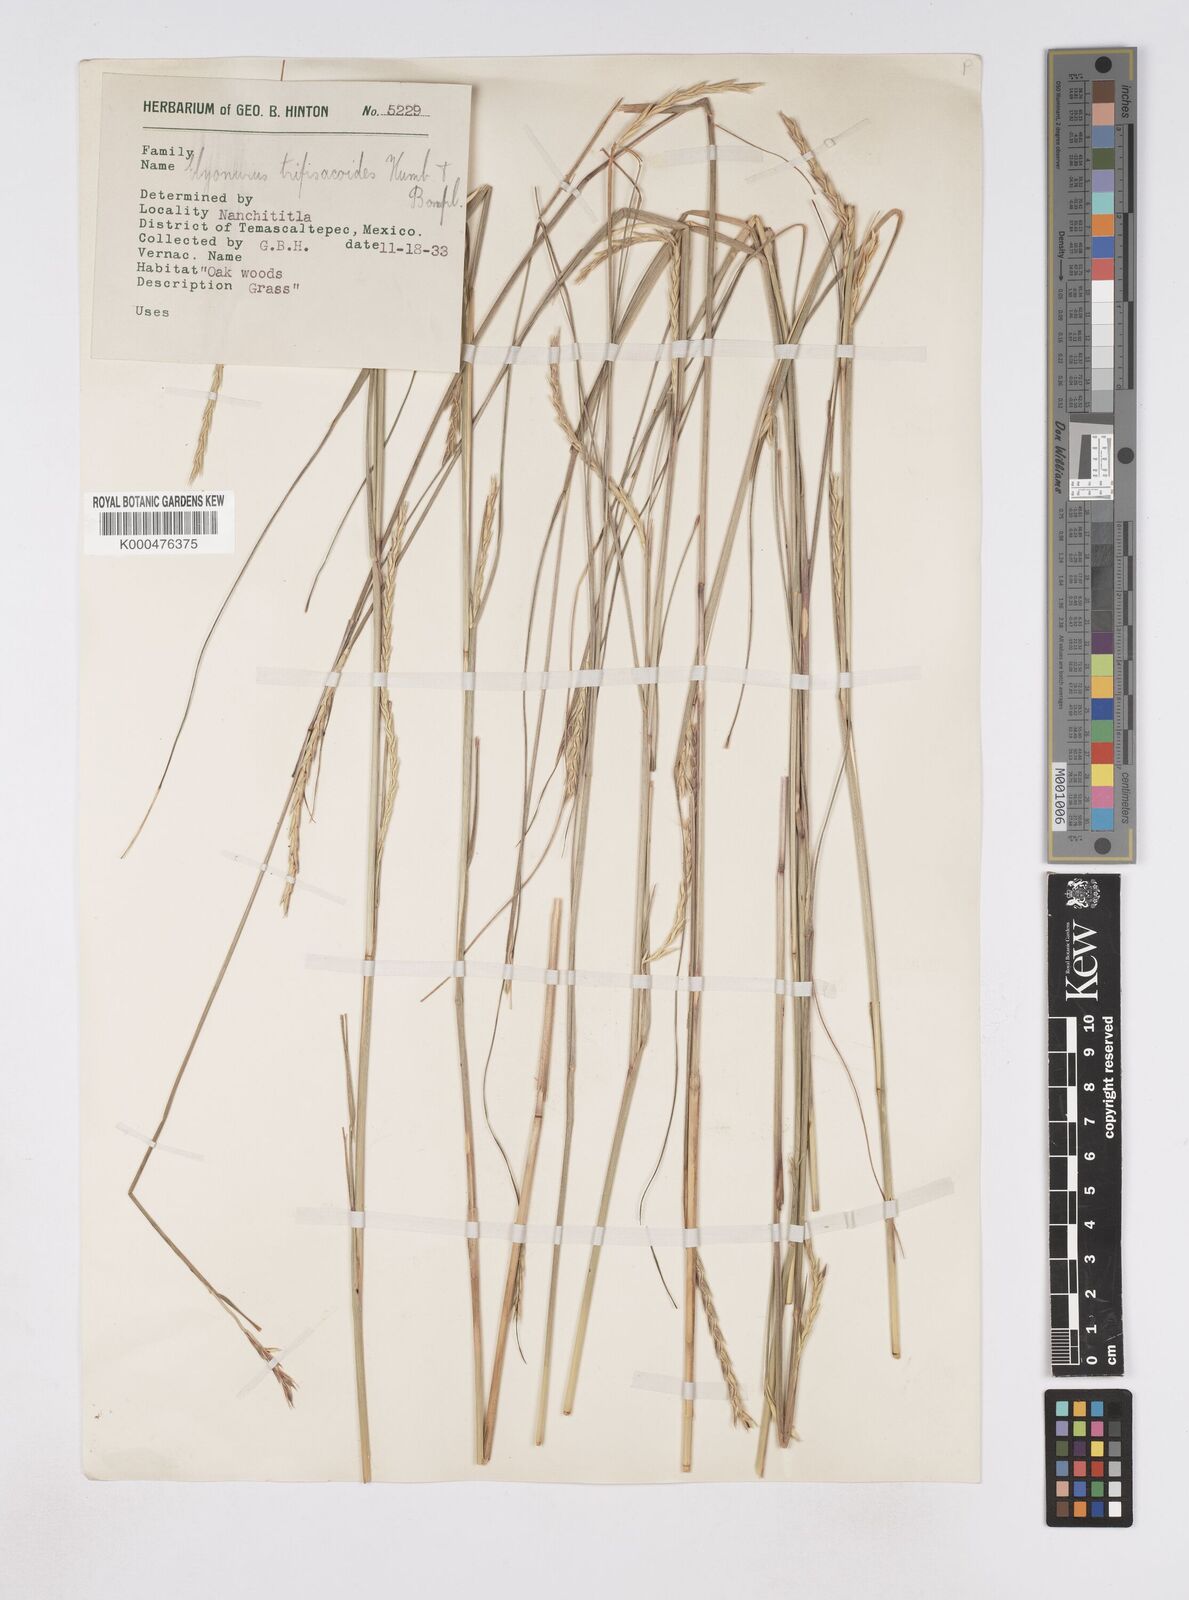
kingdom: Plantae
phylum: Tracheophyta
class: Liliopsida
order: Poales
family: Poaceae
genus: Elionurus
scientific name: Elionurus tripsacoides
